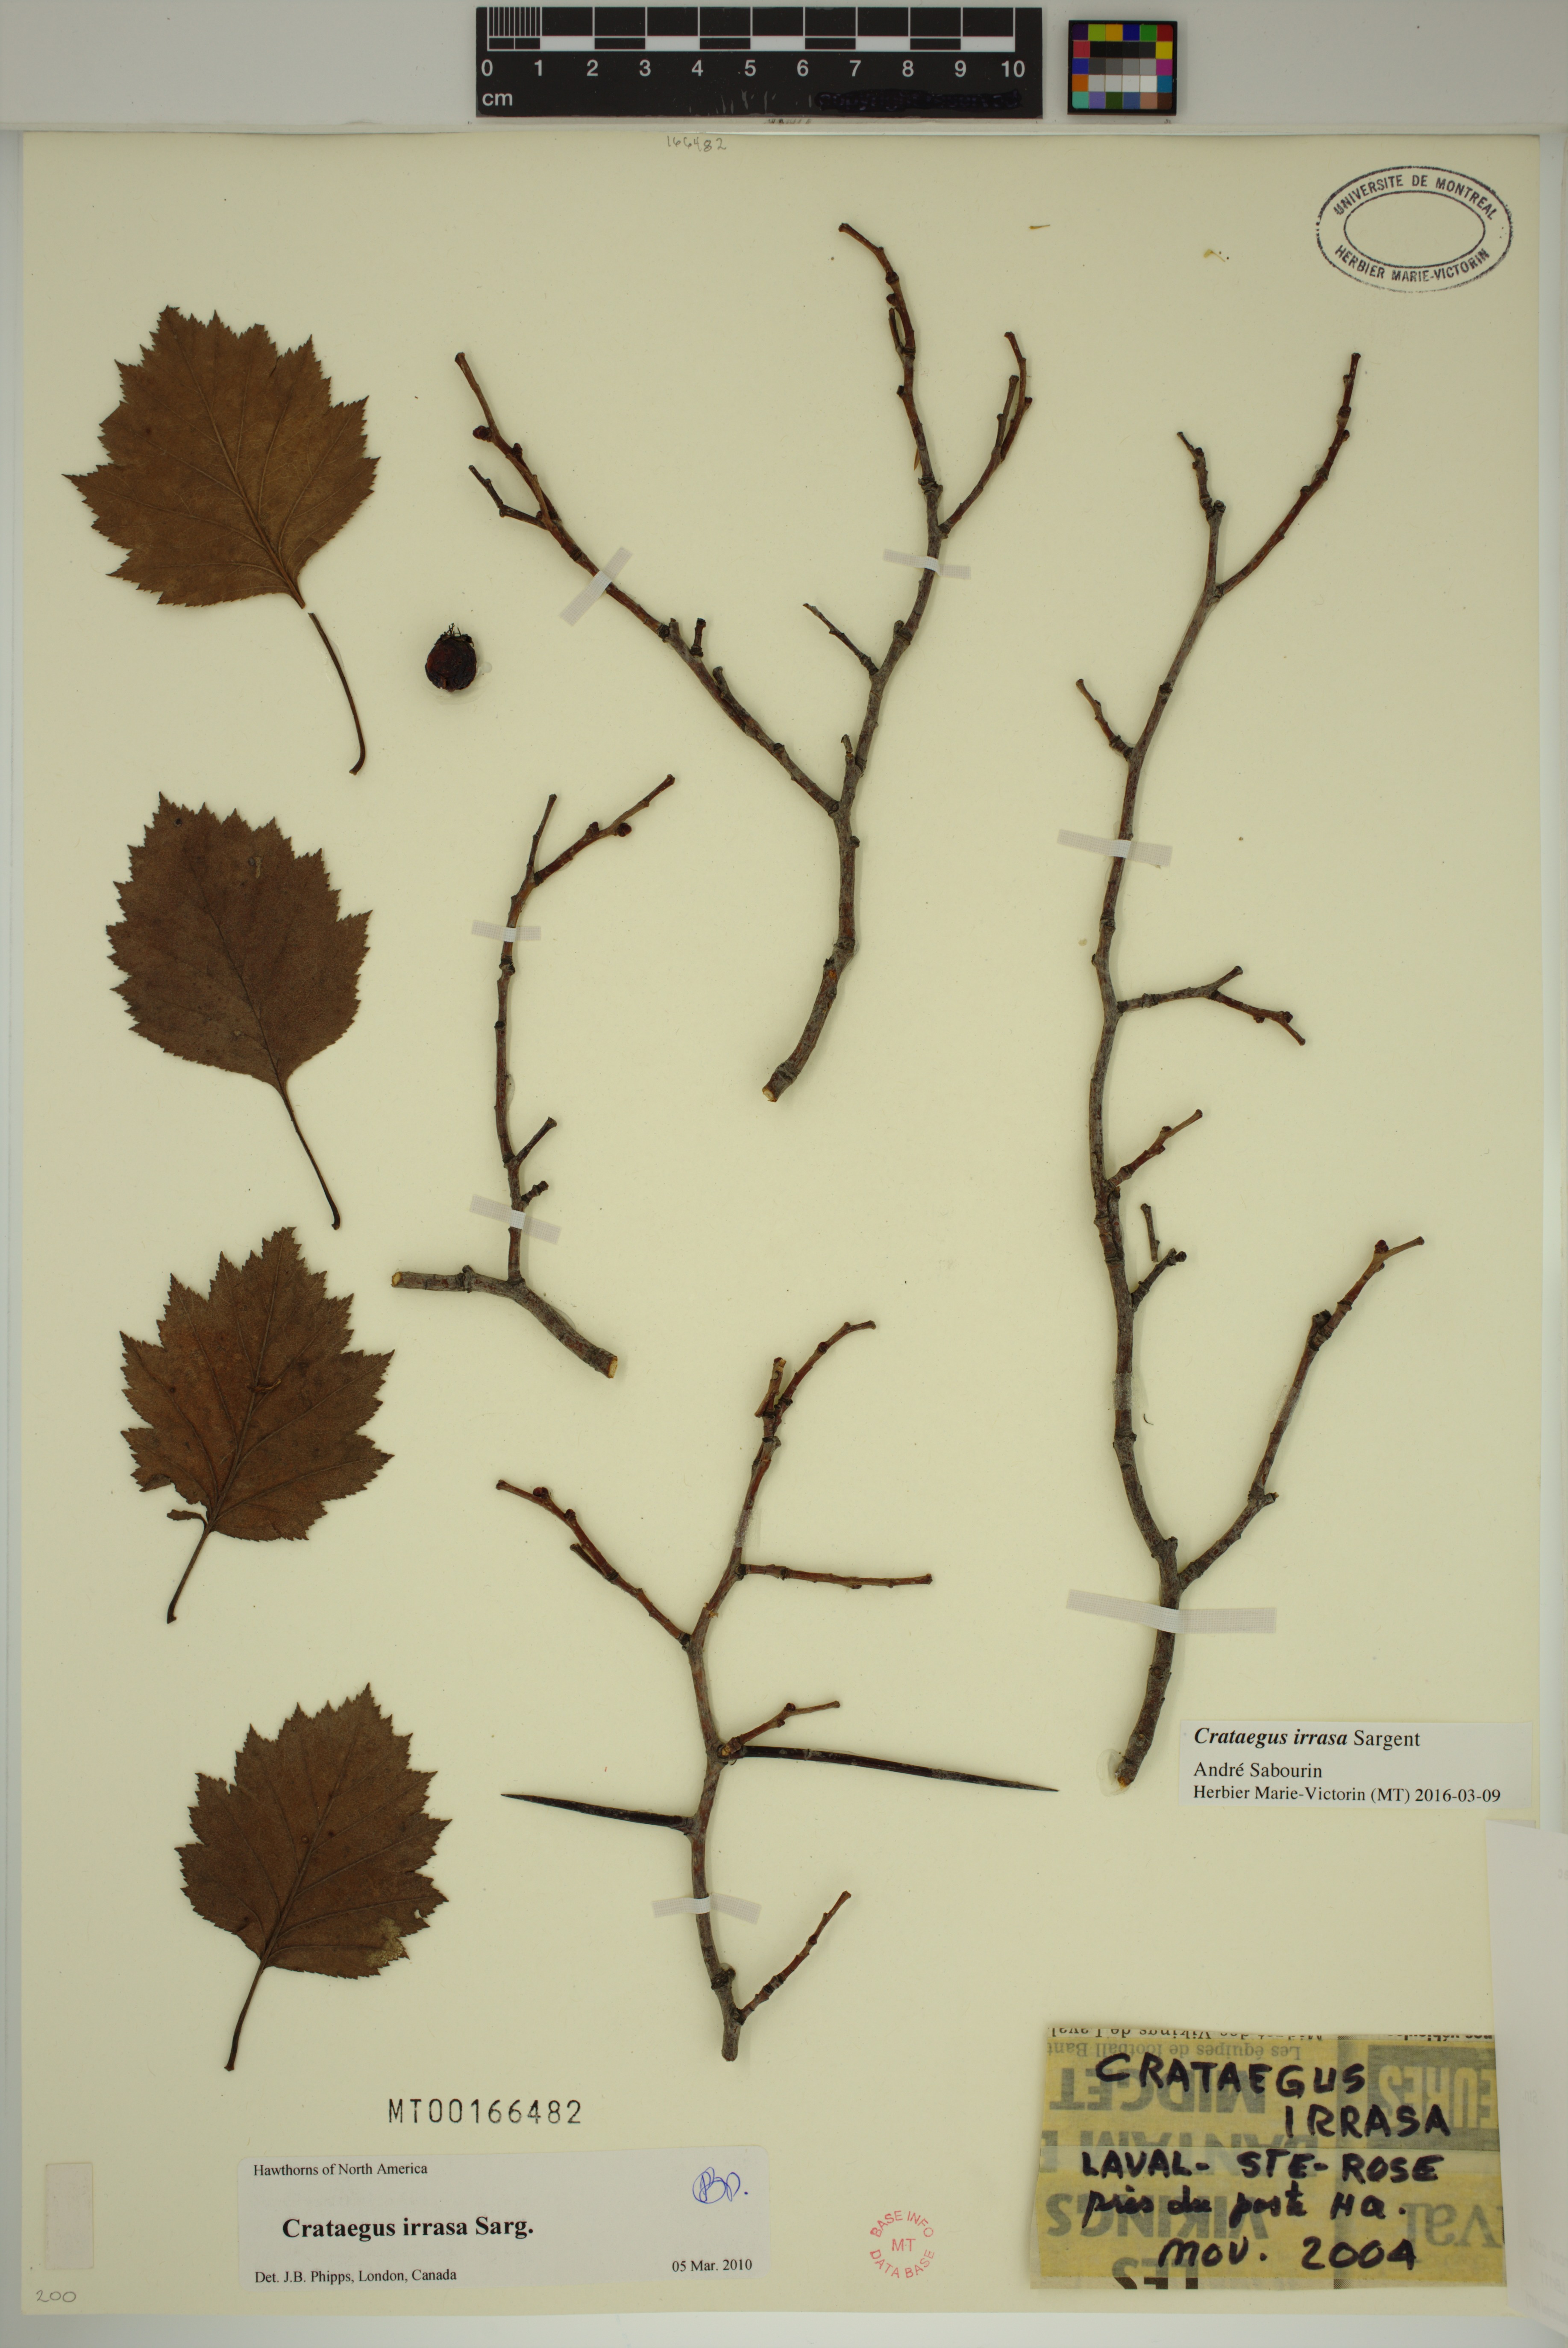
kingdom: Plantae
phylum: Tracheophyta
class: Magnoliopsida
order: Rosales
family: Rosaceae
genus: Crataegus
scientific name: Crataegus irrasa
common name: Unshorn hawthorn
